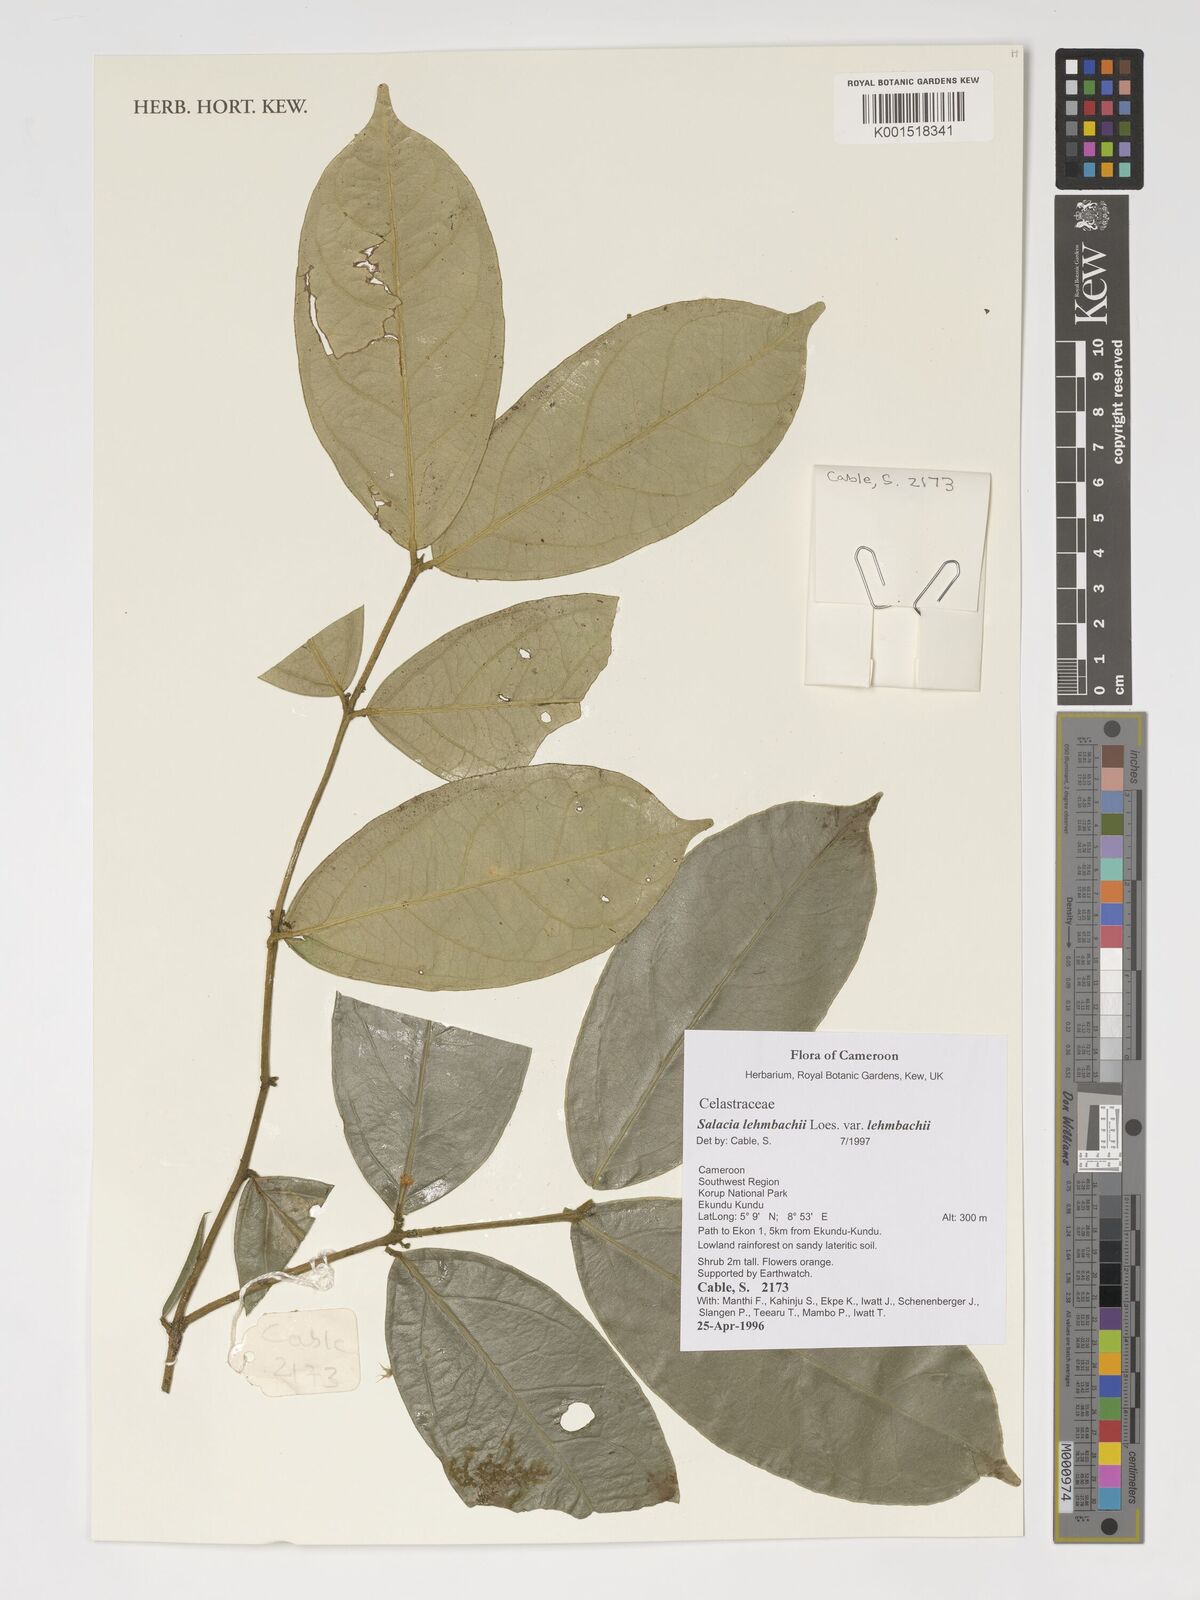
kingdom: Plantae
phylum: Tracheophyta
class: Magnoliopsida
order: Celastrales
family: Celastraceae
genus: Salacia
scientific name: Salacia lehmbachii
